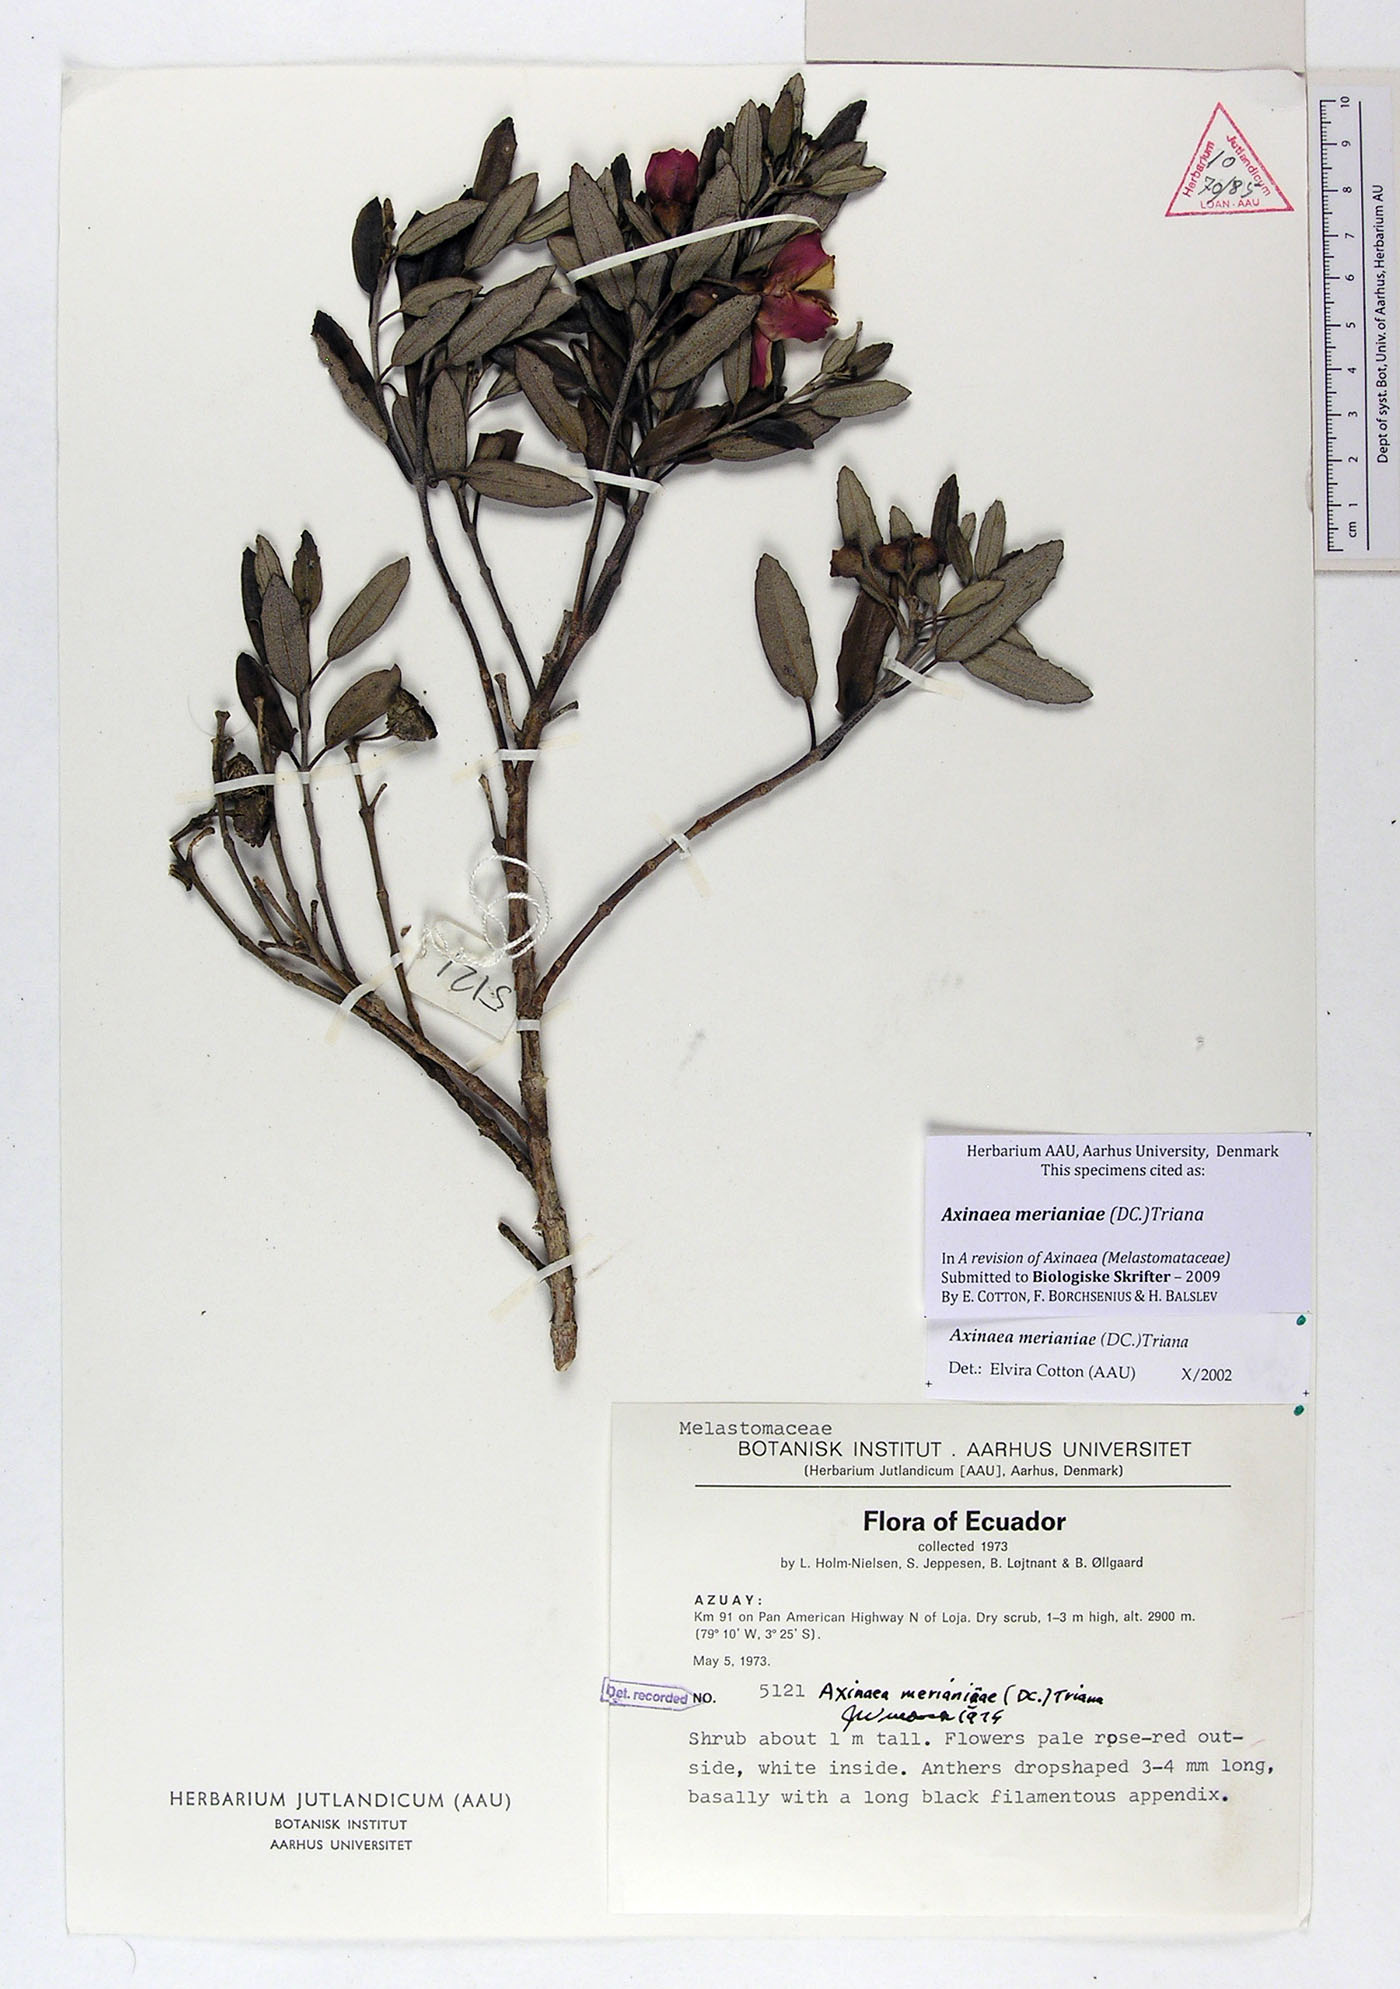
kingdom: Plantae
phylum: Tracheophyta
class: Magnoliopsida
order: Myrtales
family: Melastomataceae
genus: Axinaea
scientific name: Axinaea merianiae
